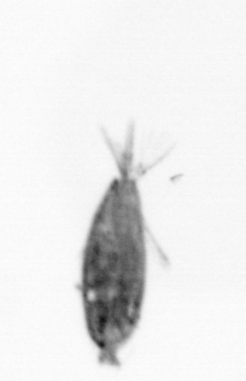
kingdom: Animalia
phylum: Arthropoda
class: Maxillopoda
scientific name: Maxillopoda
